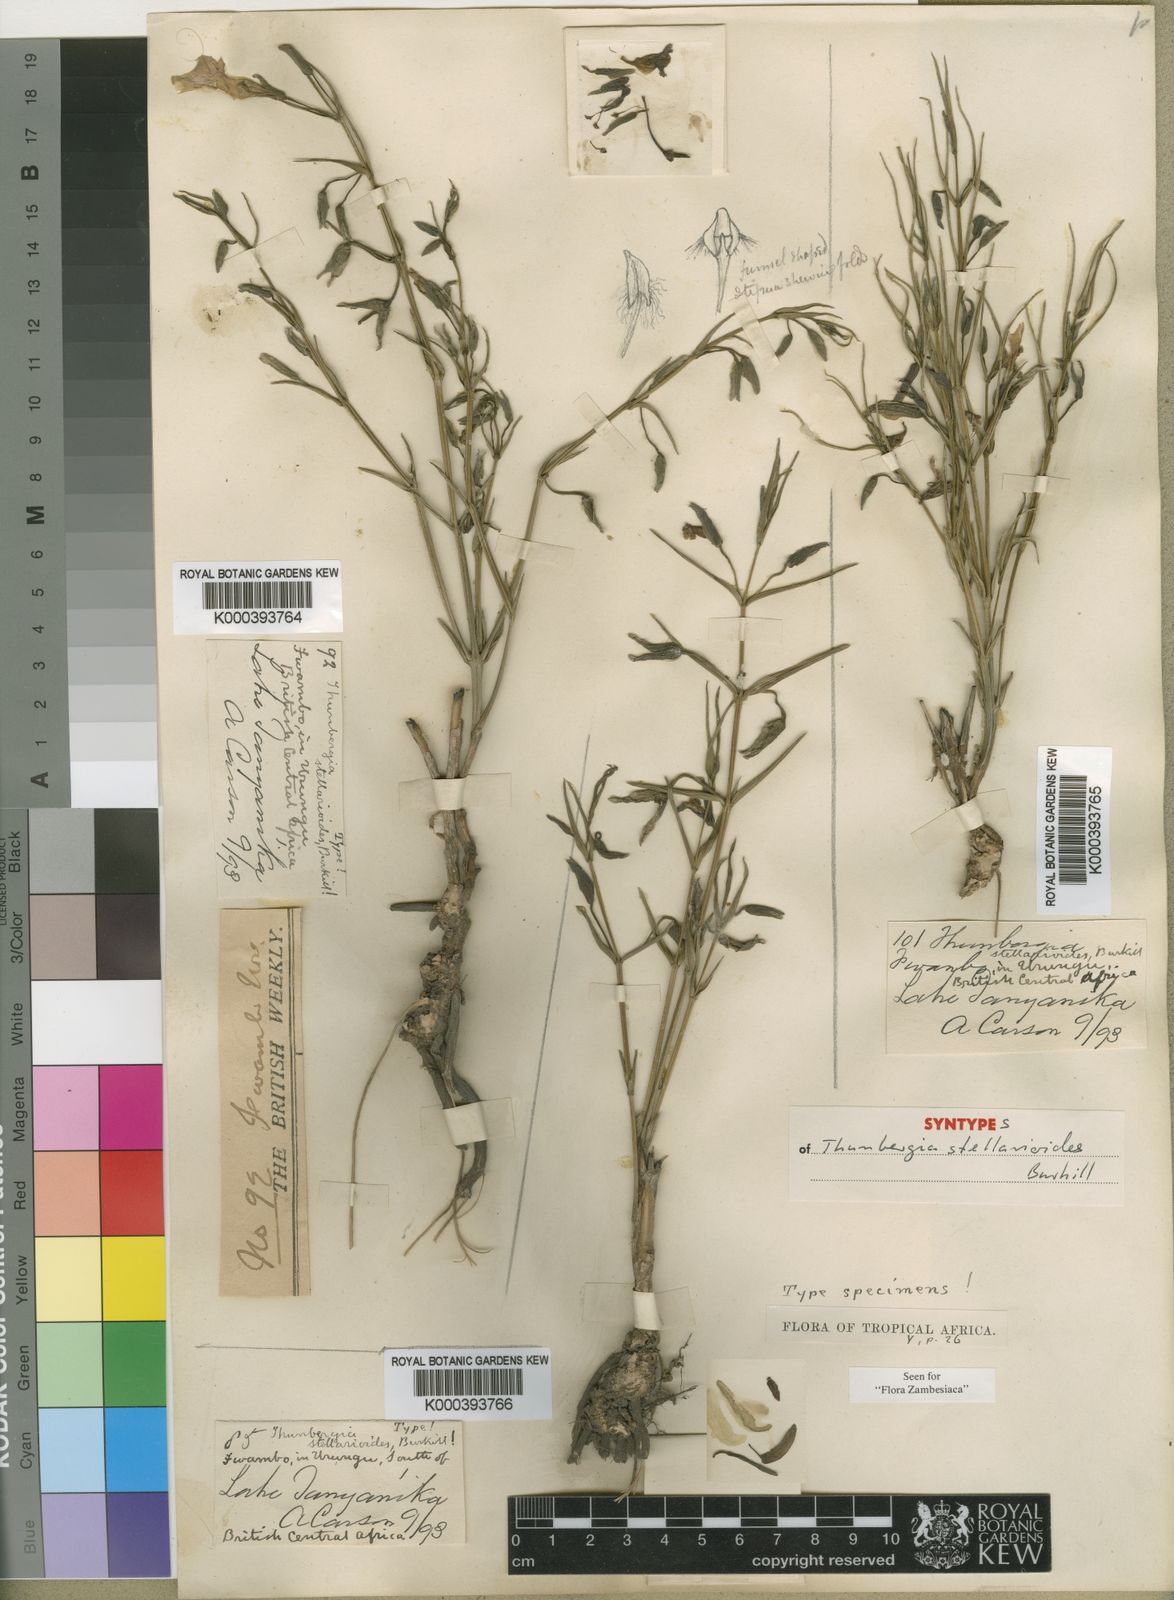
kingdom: Plantae
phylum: Tracheophyta
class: Magnoliopsida
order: Lamiales
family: Acanthaceae
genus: Thunbergia
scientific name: Thunbergia stellarioides
